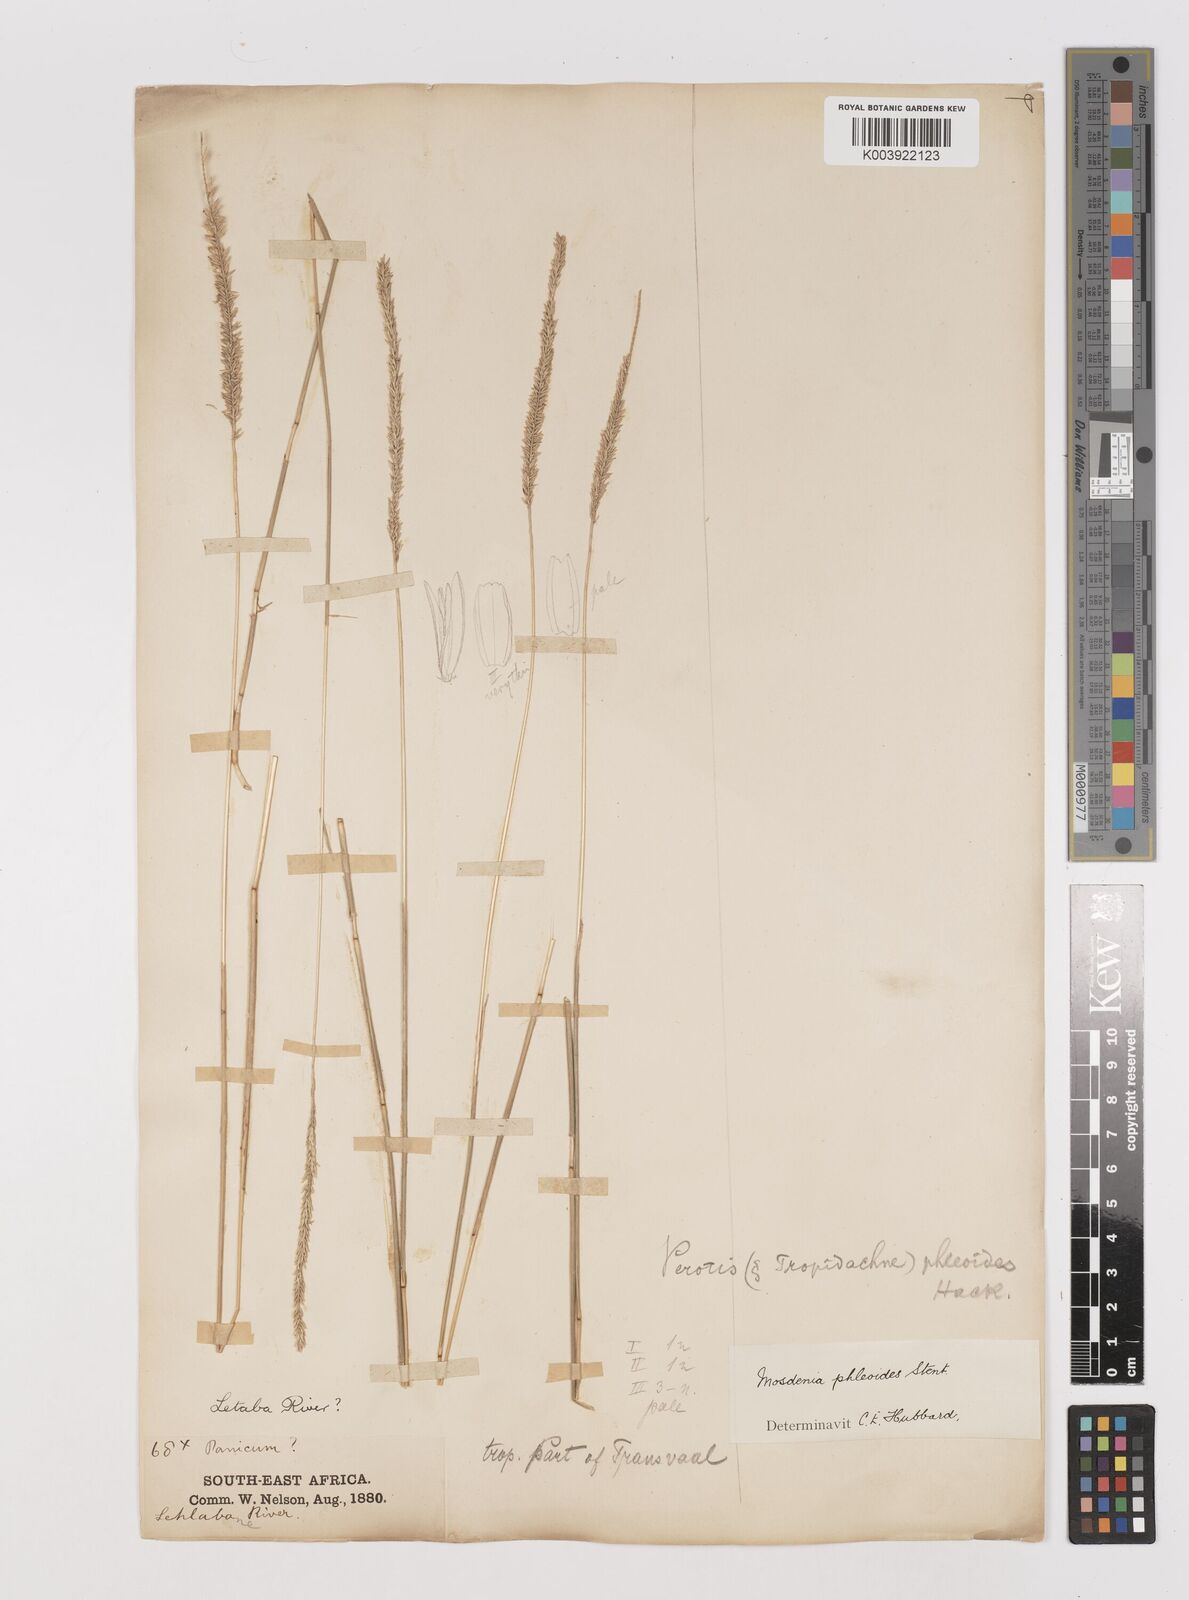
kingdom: Plantae
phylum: Tracheophyta
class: Liliopsida
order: Poales
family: Poaceae
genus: Mosdenia
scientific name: Mosdenia leptostachys
